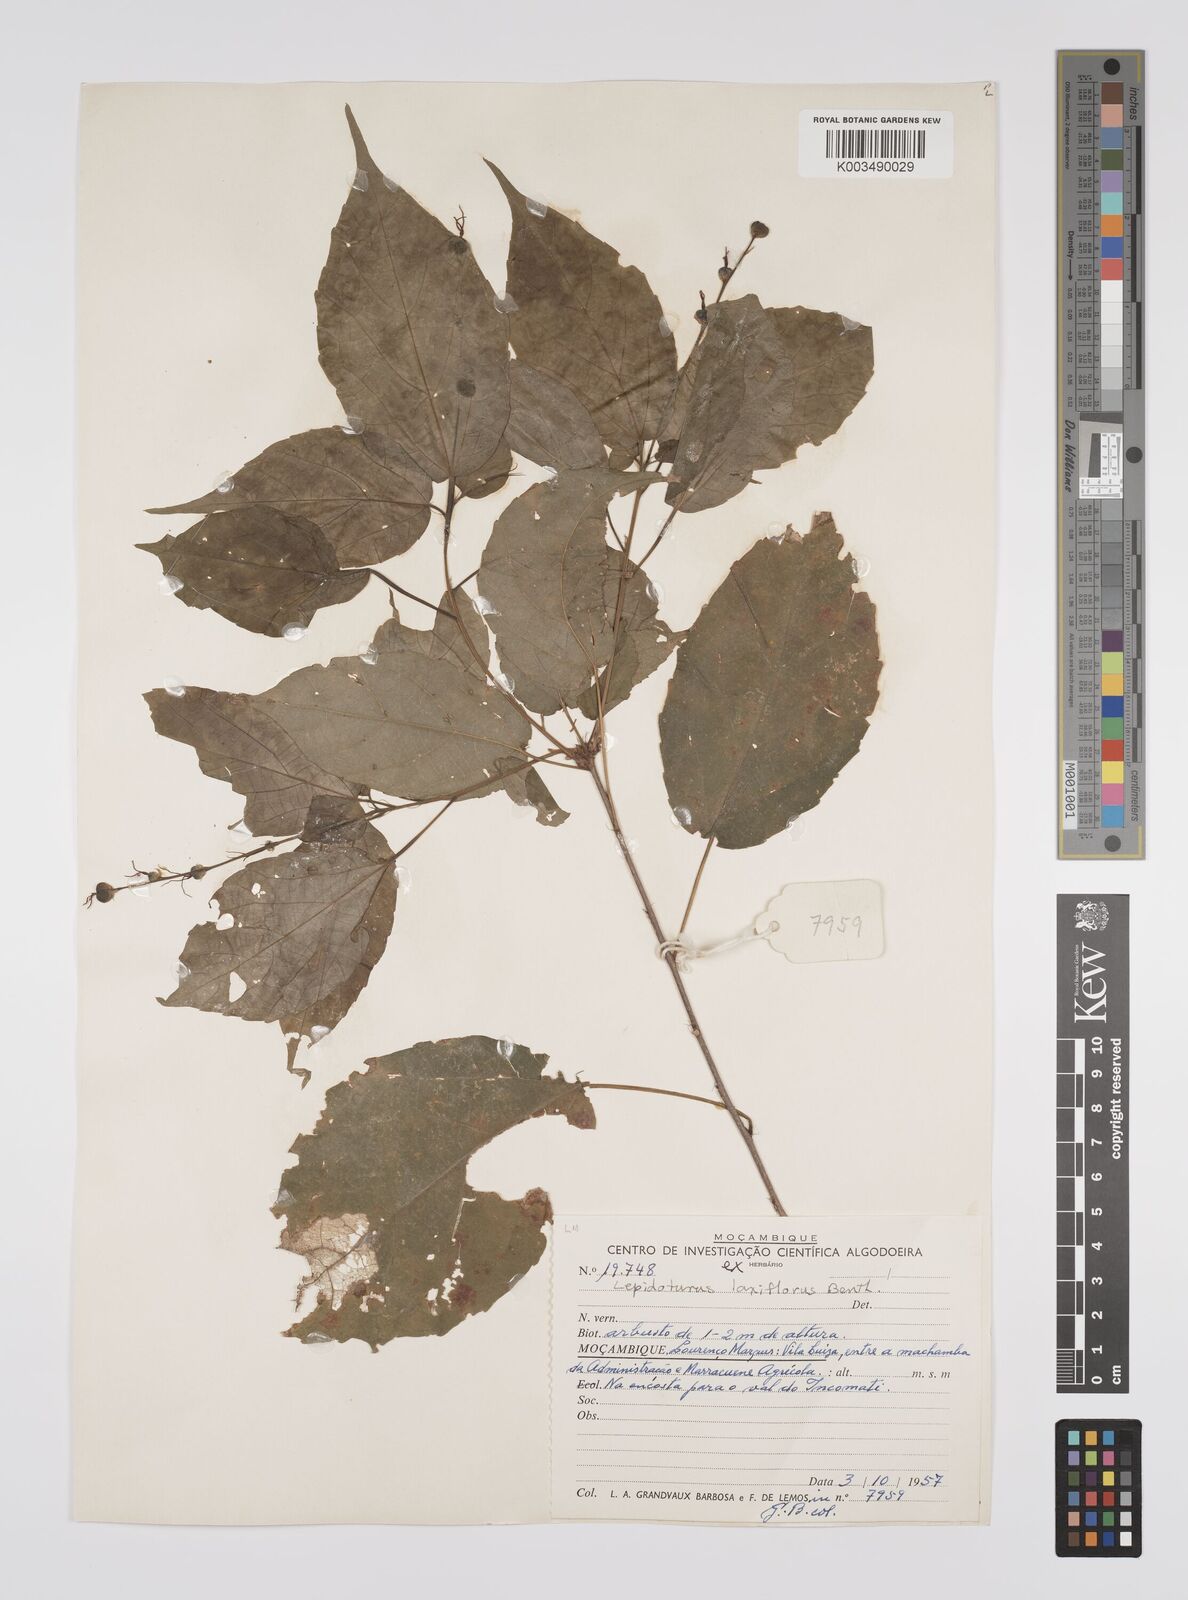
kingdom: Plantae
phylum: Tracheophyta
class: Magnoliopsida
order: Malpighiales
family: Euphorbiaceae
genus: Alchornea
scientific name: Alchornea laxiflora
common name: Lowveld bead-string
